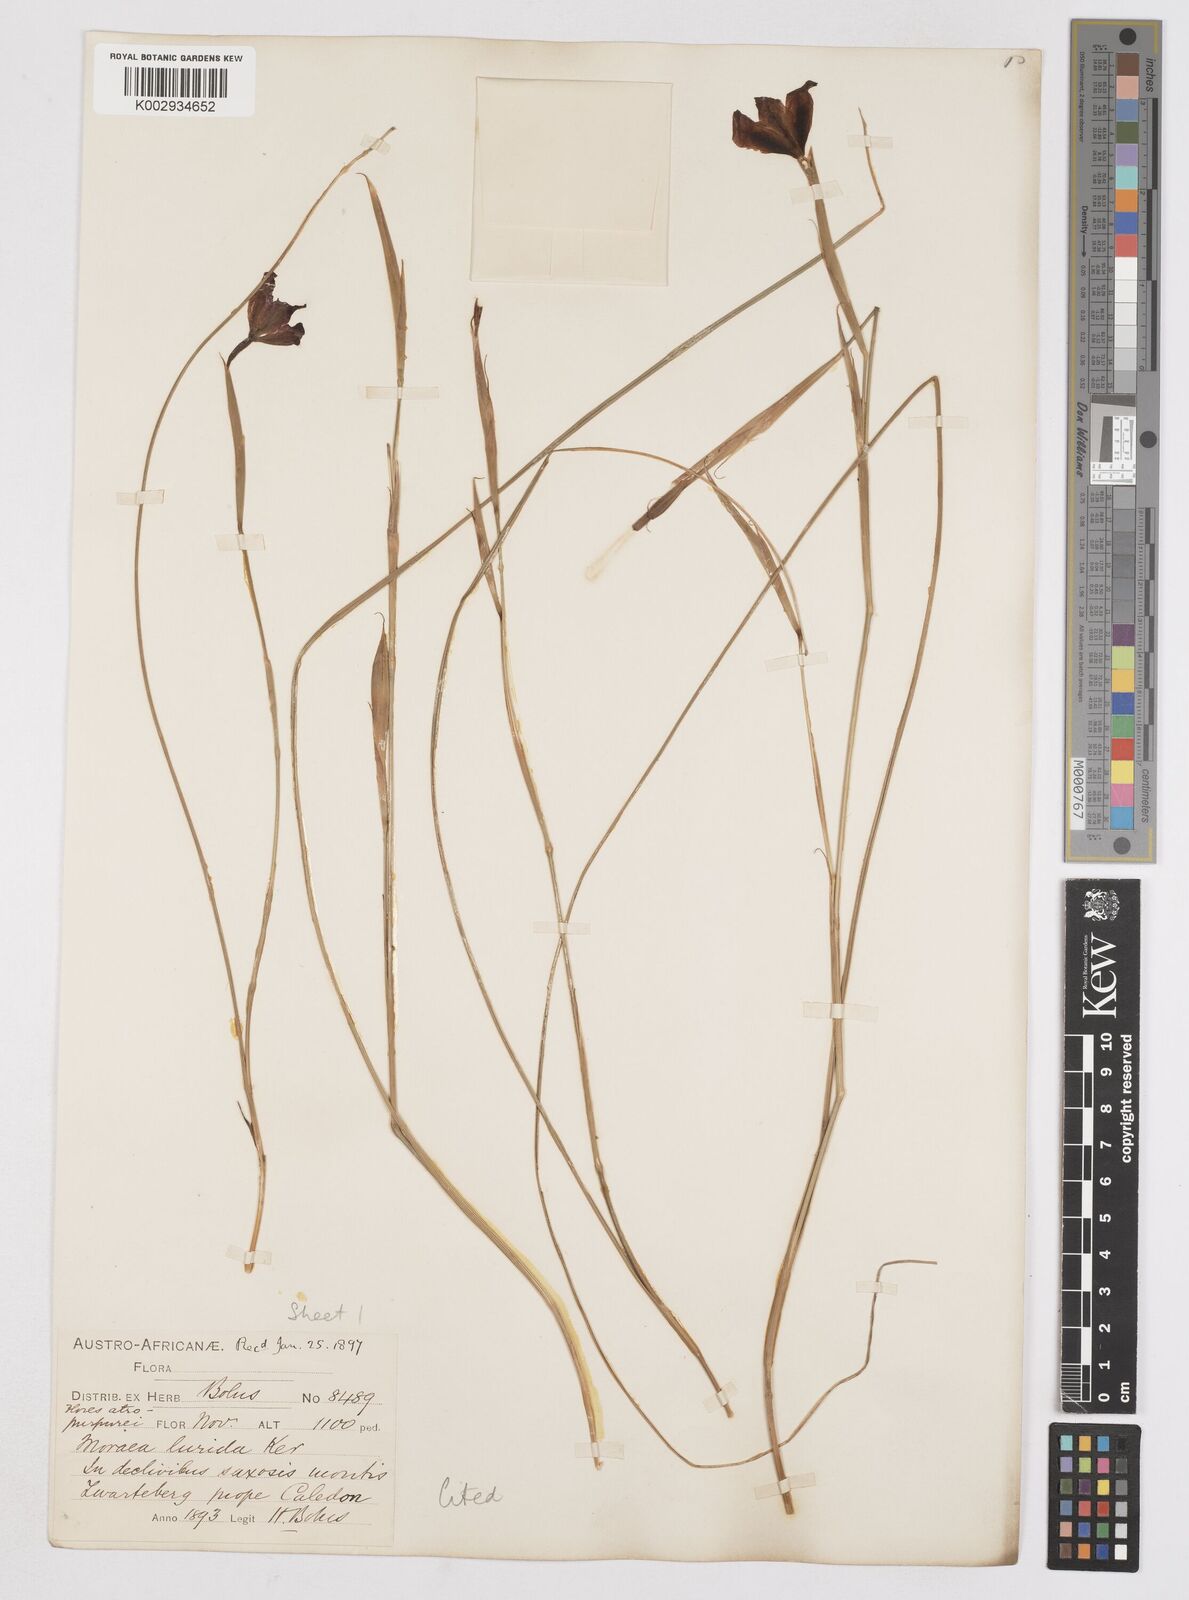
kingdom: Plantae
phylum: Tracheophyta
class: Liliopsida
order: Asparagales
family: Iridaceae
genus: Moraea
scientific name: Moraea lurida
